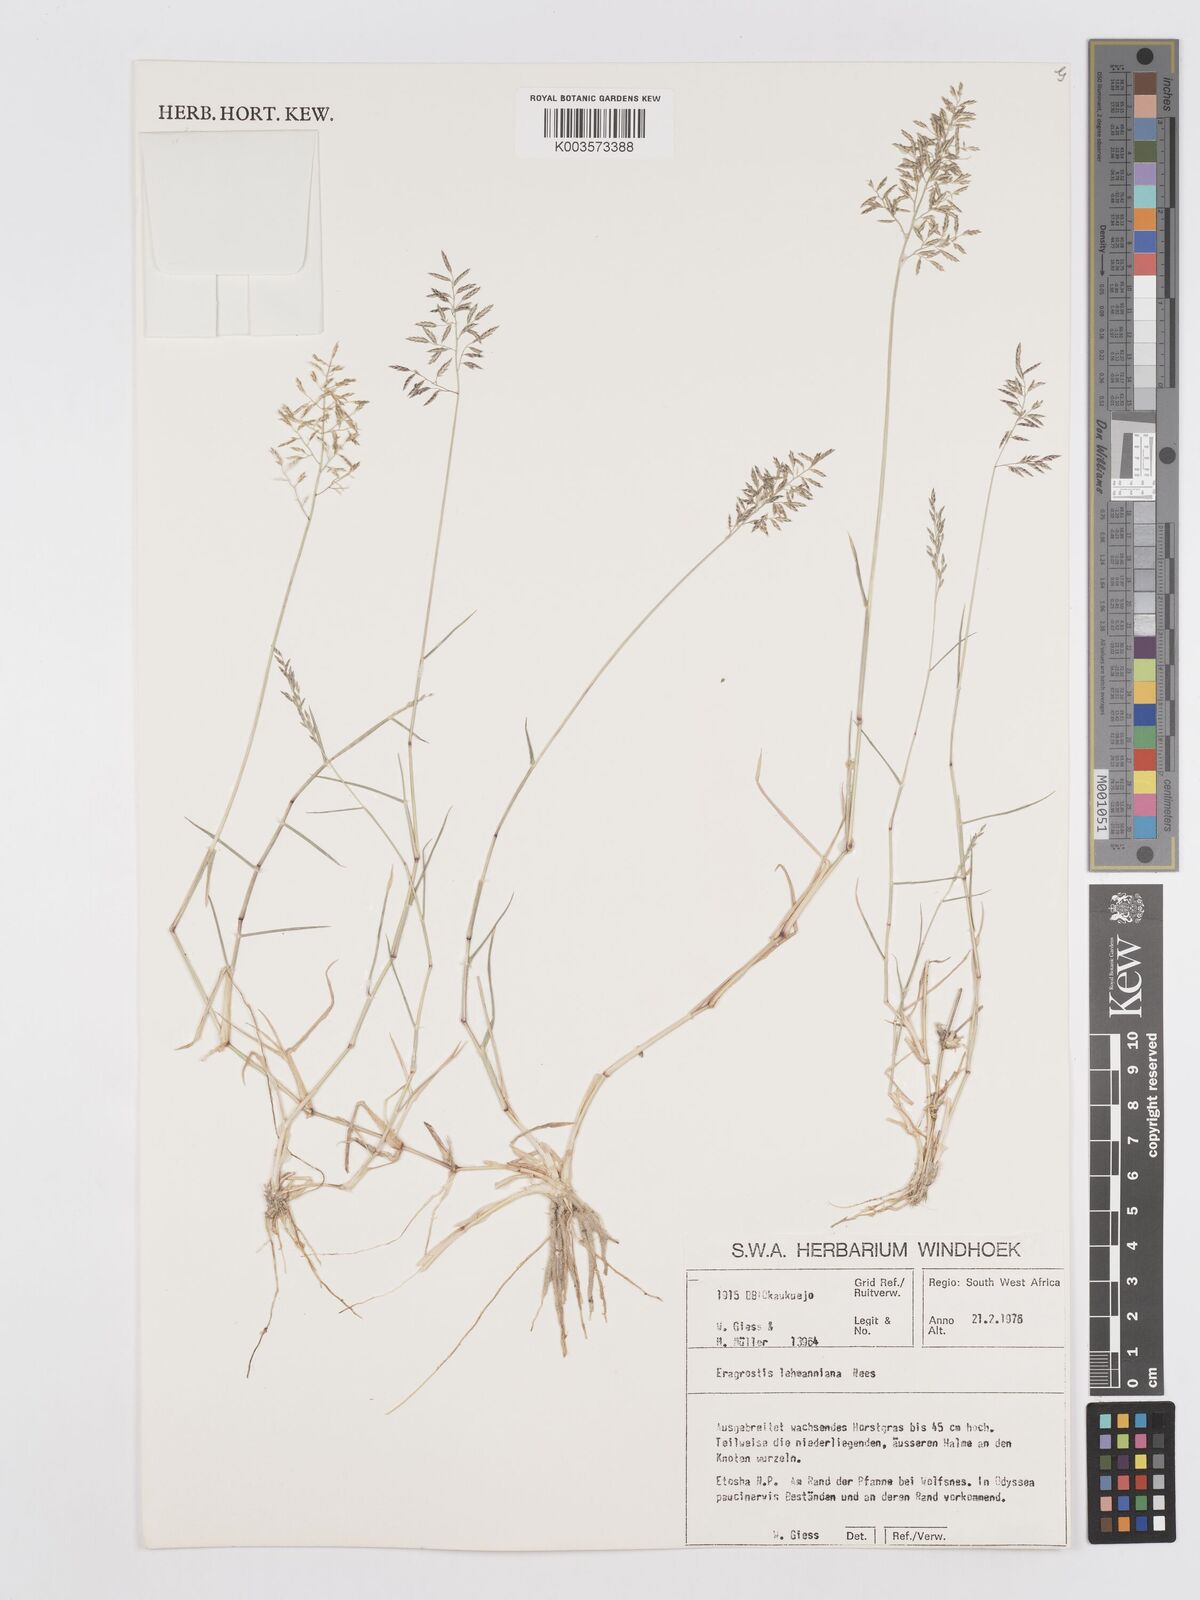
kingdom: Plantae
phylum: Tracheophyta
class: Liliopsida
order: Poales
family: Poaceae
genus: Eragrostis
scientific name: Eragrostis lehmanniana
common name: Lehmann lovegrass
